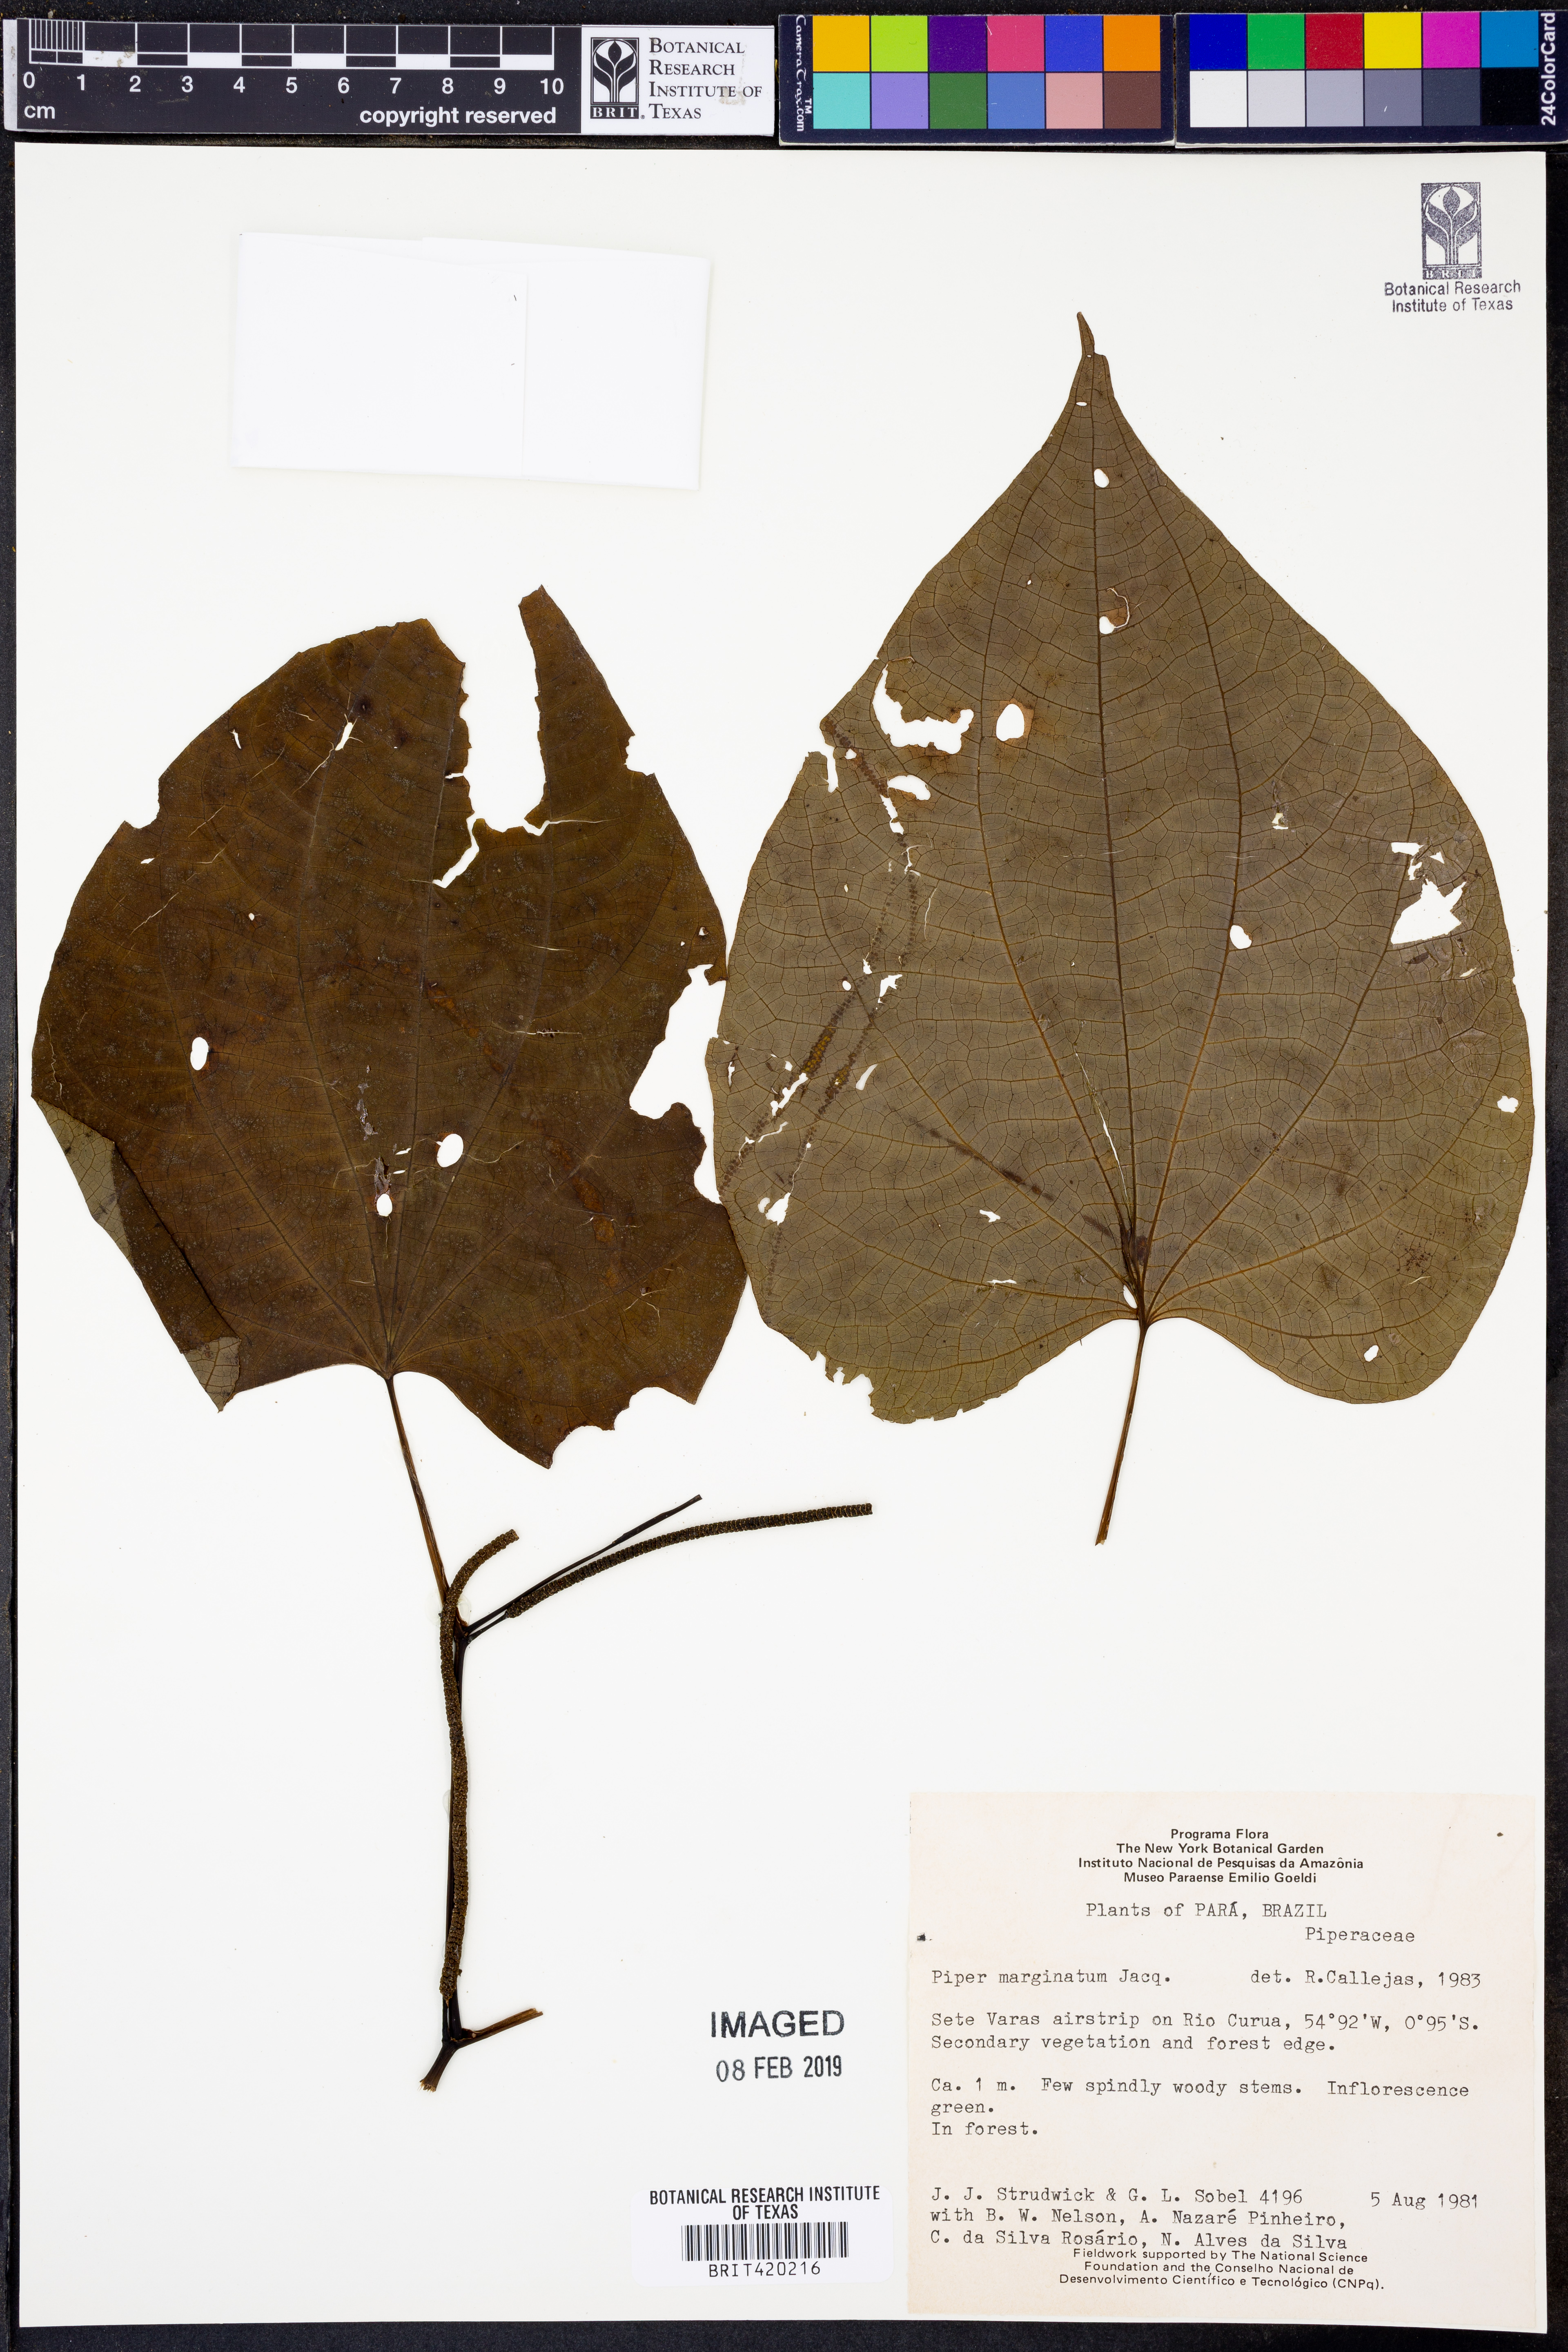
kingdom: Plantae
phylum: Tracheophyta
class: Magnoliopsida
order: Piperales
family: Piperaceae
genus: Piper
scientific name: Piper marginatum
